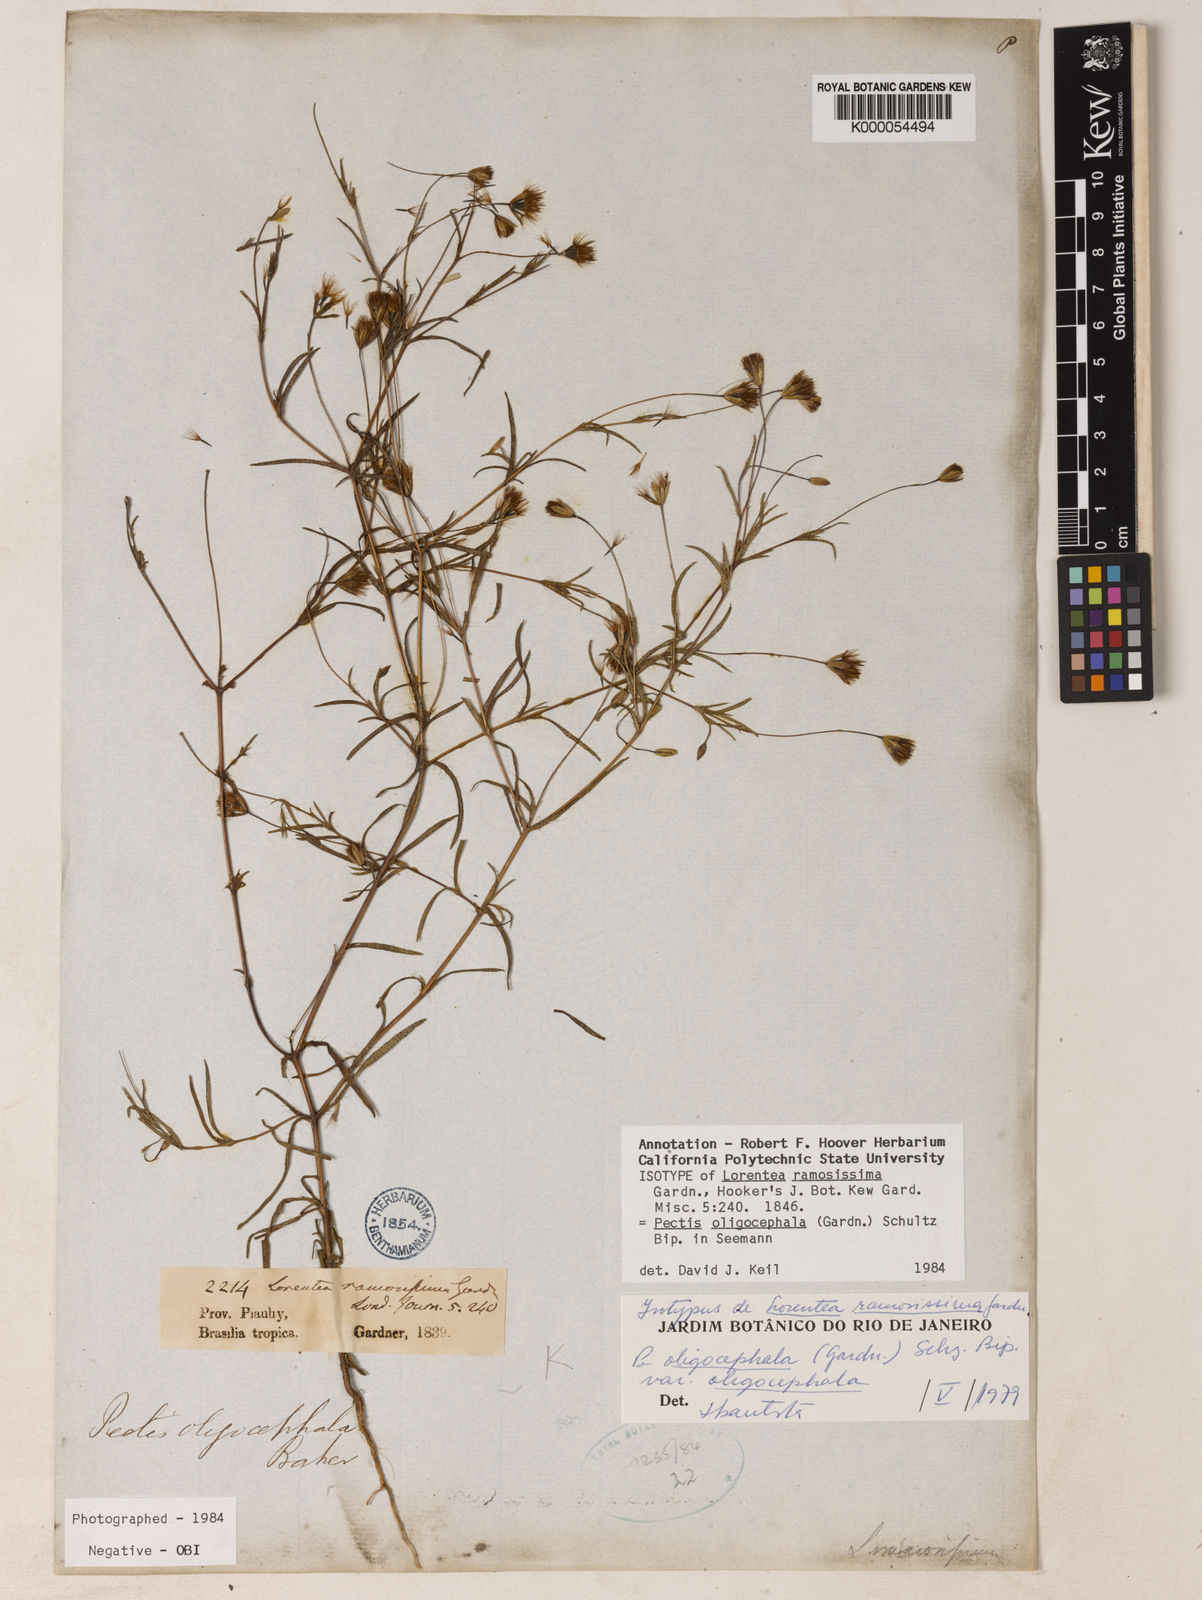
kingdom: Plantae
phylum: Tracheophyta
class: Magnoliopsida
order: Asterales
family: Asteraceae
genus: Pectis
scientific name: Pectis oligocephala
